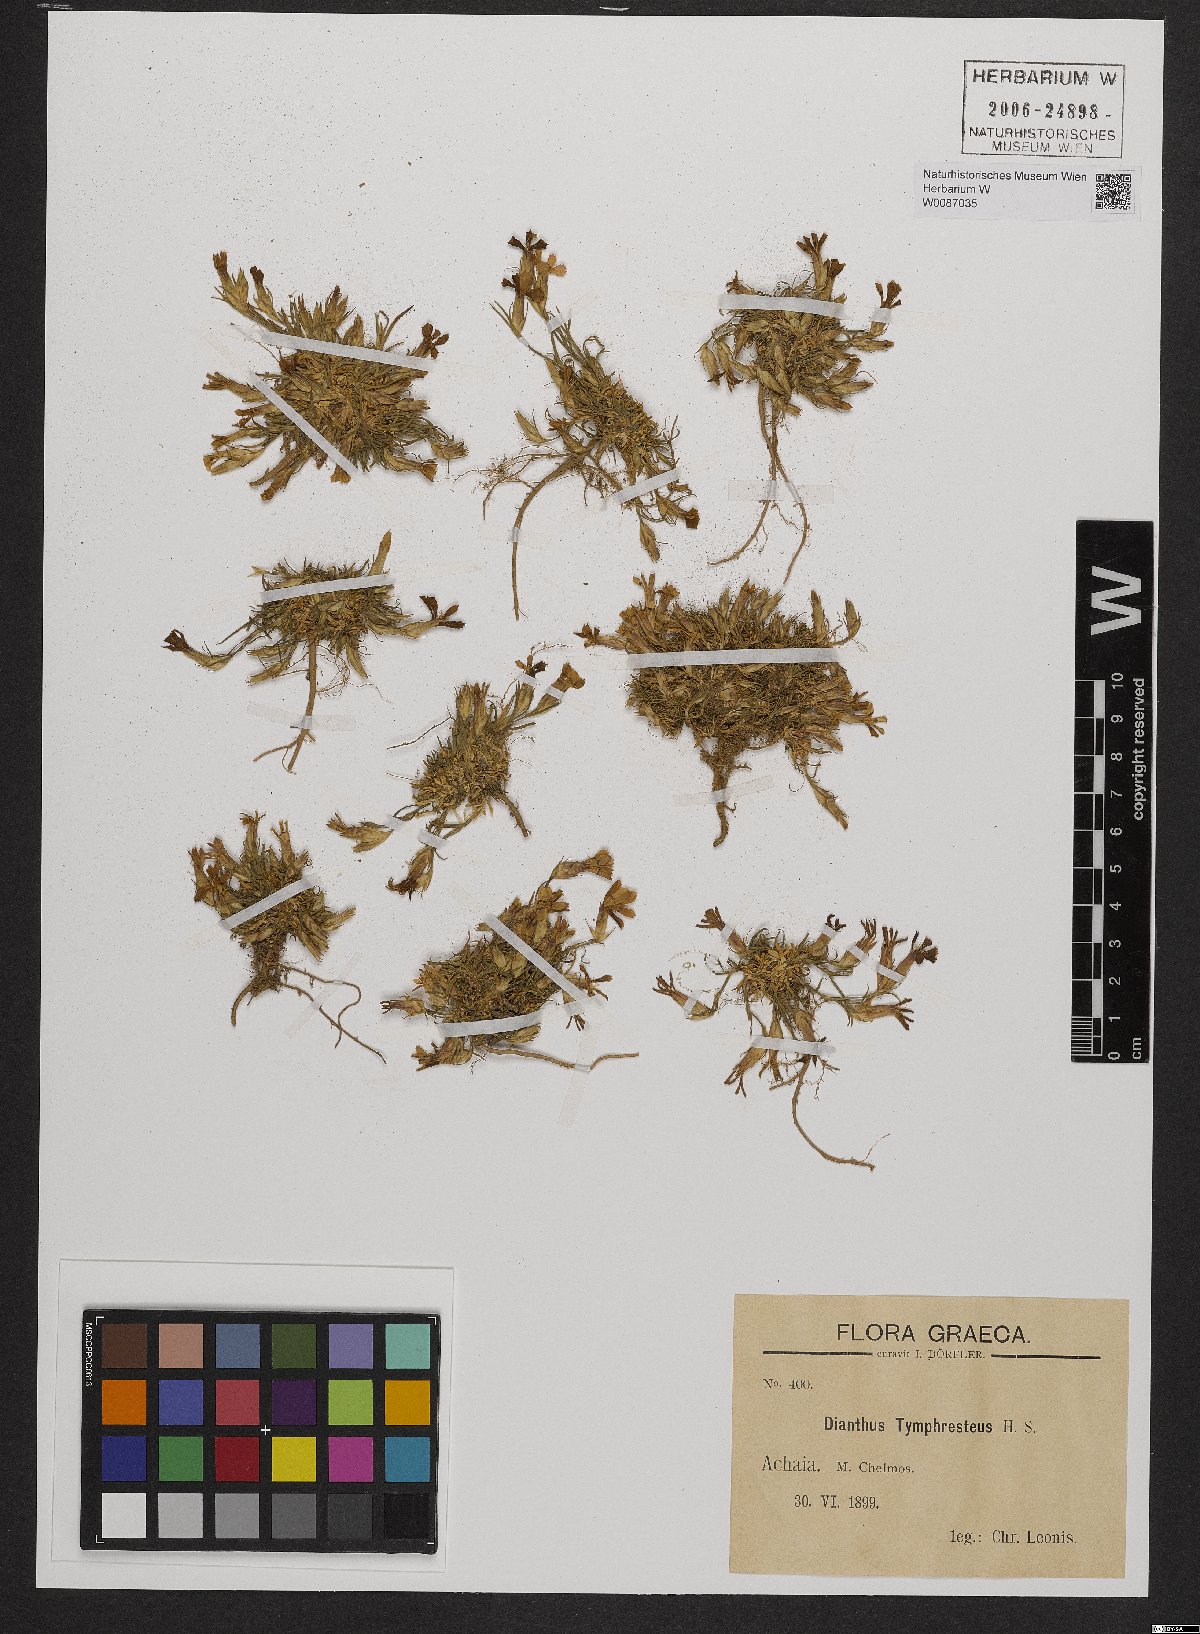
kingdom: Plantae
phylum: Tracheophyta
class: Magnoliopsida
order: Caryophyllales
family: Caryophyllaceae
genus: Dianthus
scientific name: Dianthus tymphresteus
